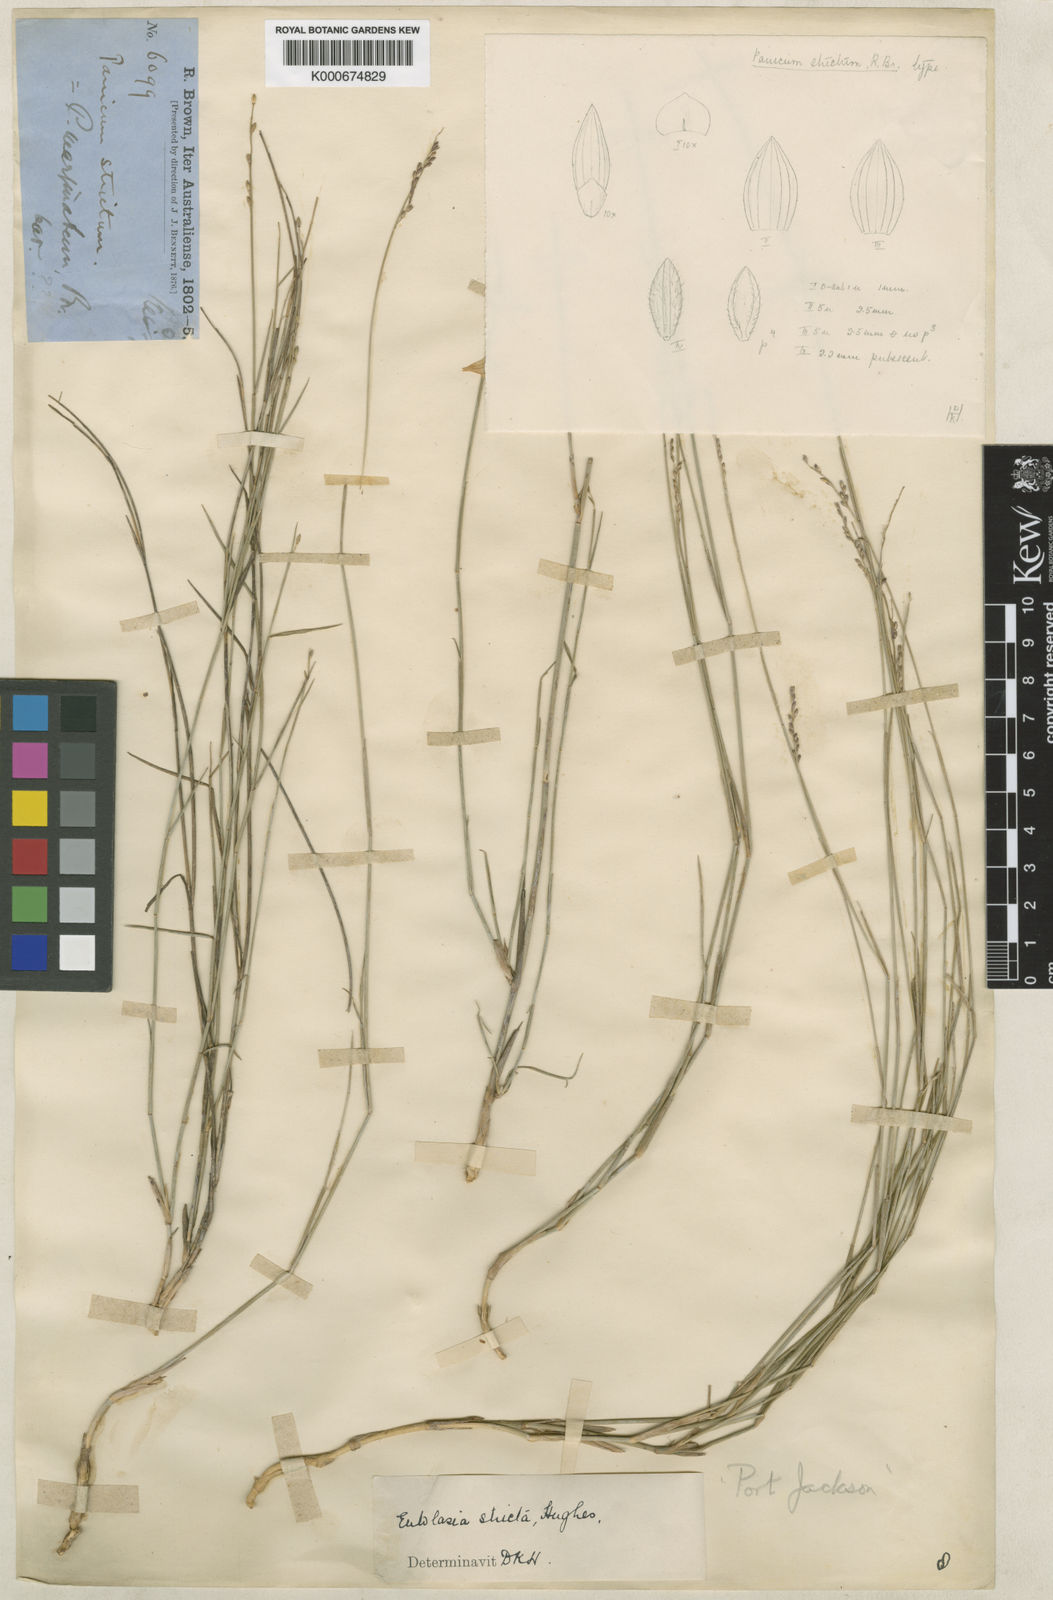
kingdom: Plantae
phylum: Tracheophyta
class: Liliopsida
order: Poales
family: Poaceae
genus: Entolasia
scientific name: Entolasia stricta
